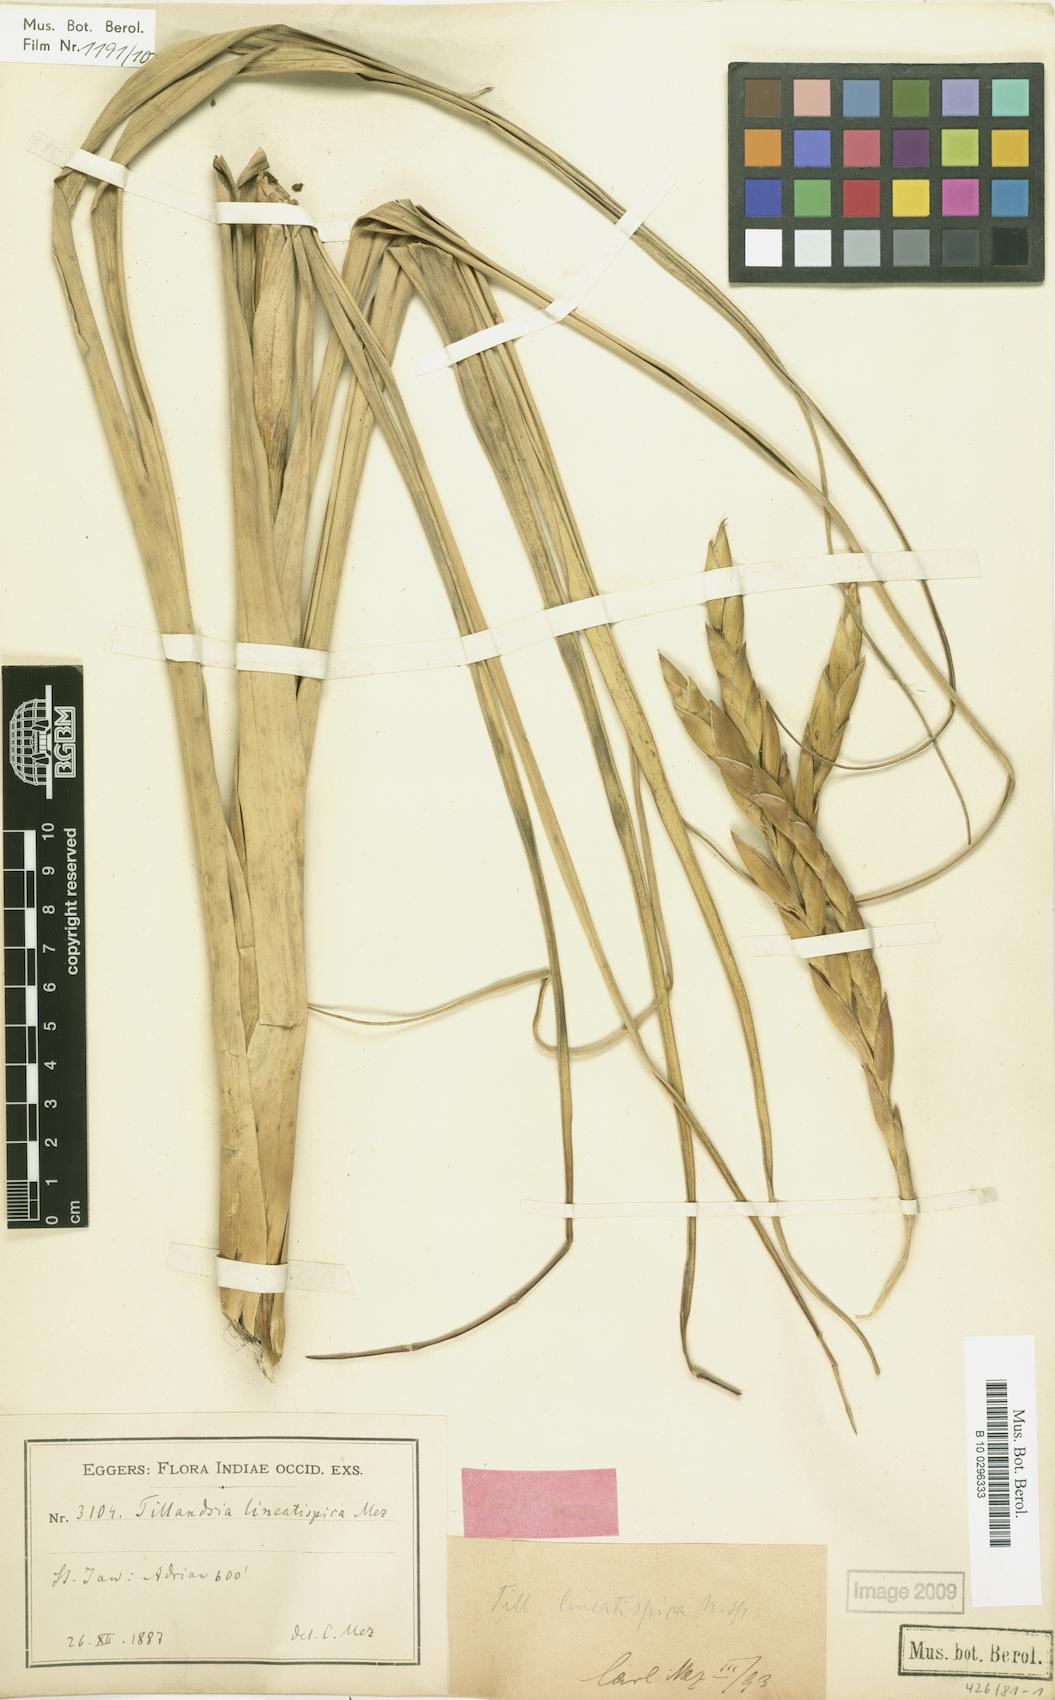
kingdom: Plantae
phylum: Tracheophyta
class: Liliopsida
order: Poales
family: Bromeliaceae
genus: Tillandsia
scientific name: Tillandsia lineatispica
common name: Pinon
